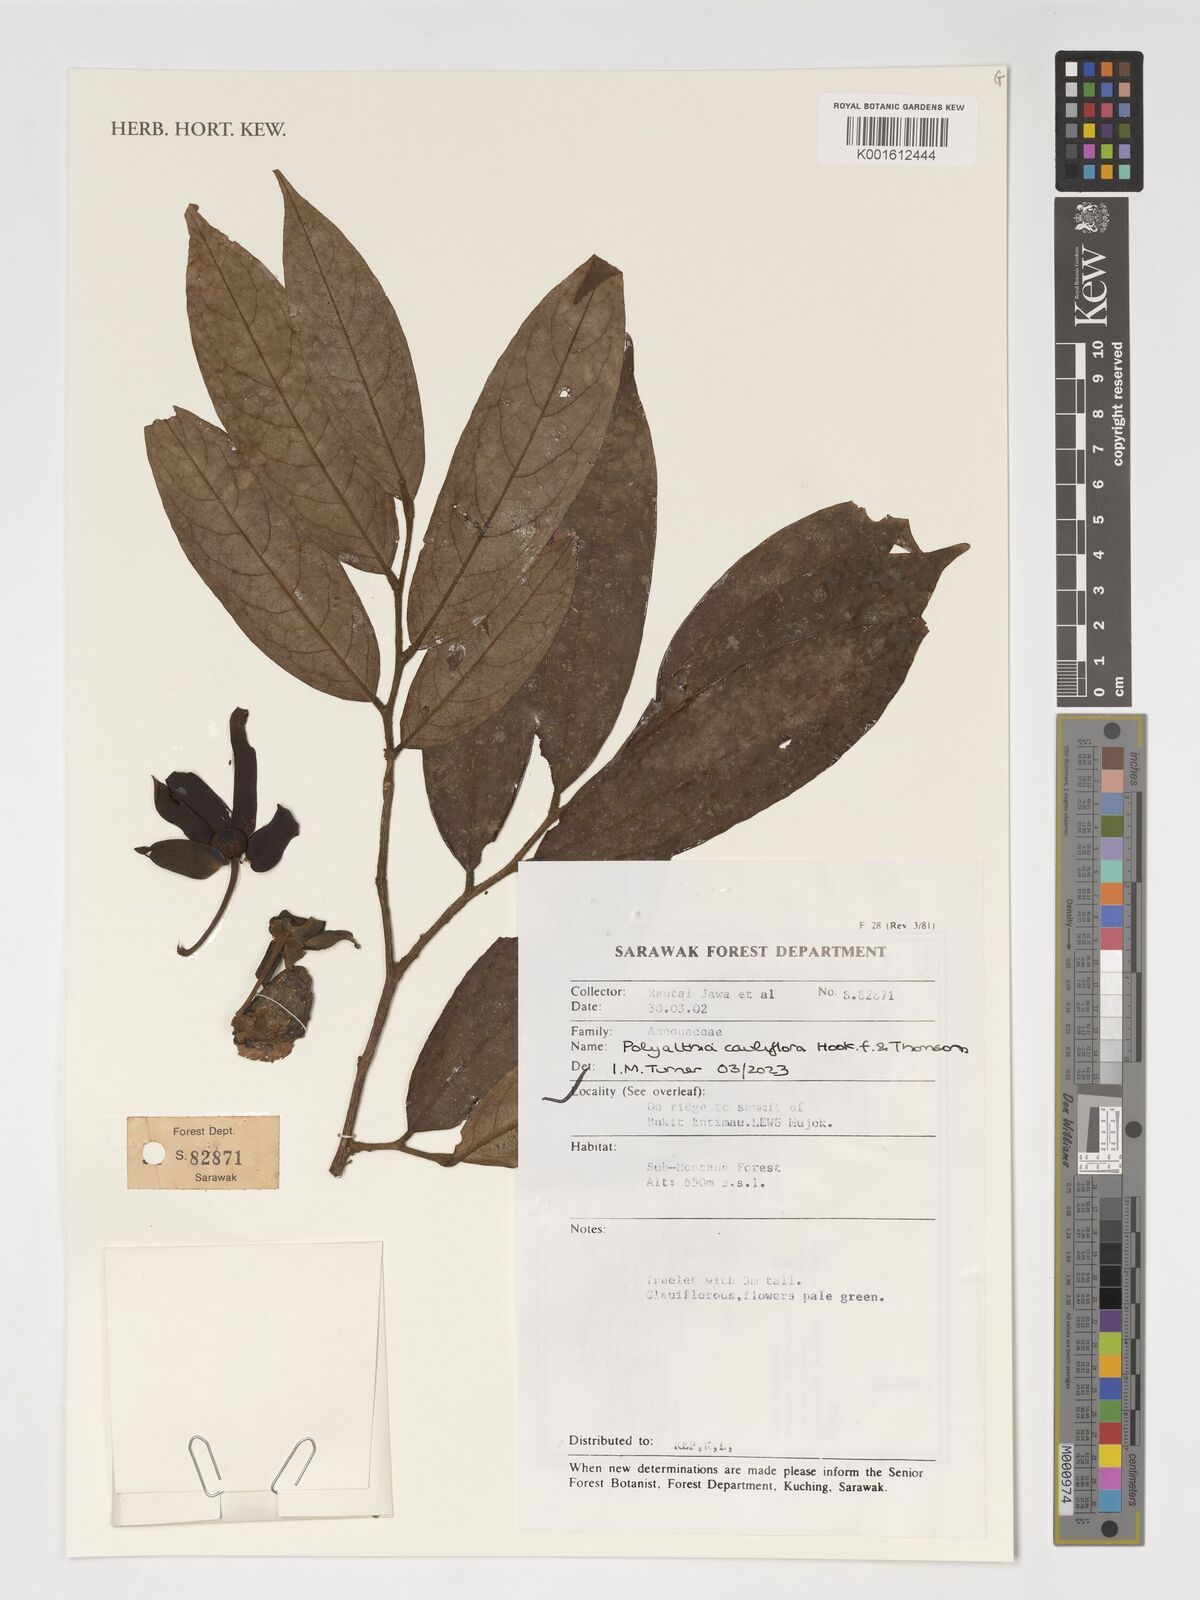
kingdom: Plantae
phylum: Tracheophyta
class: Magnoliopsida
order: Magnoliales
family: Annonaceae
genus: Polyalthia
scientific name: Polyalthia cauliflora
